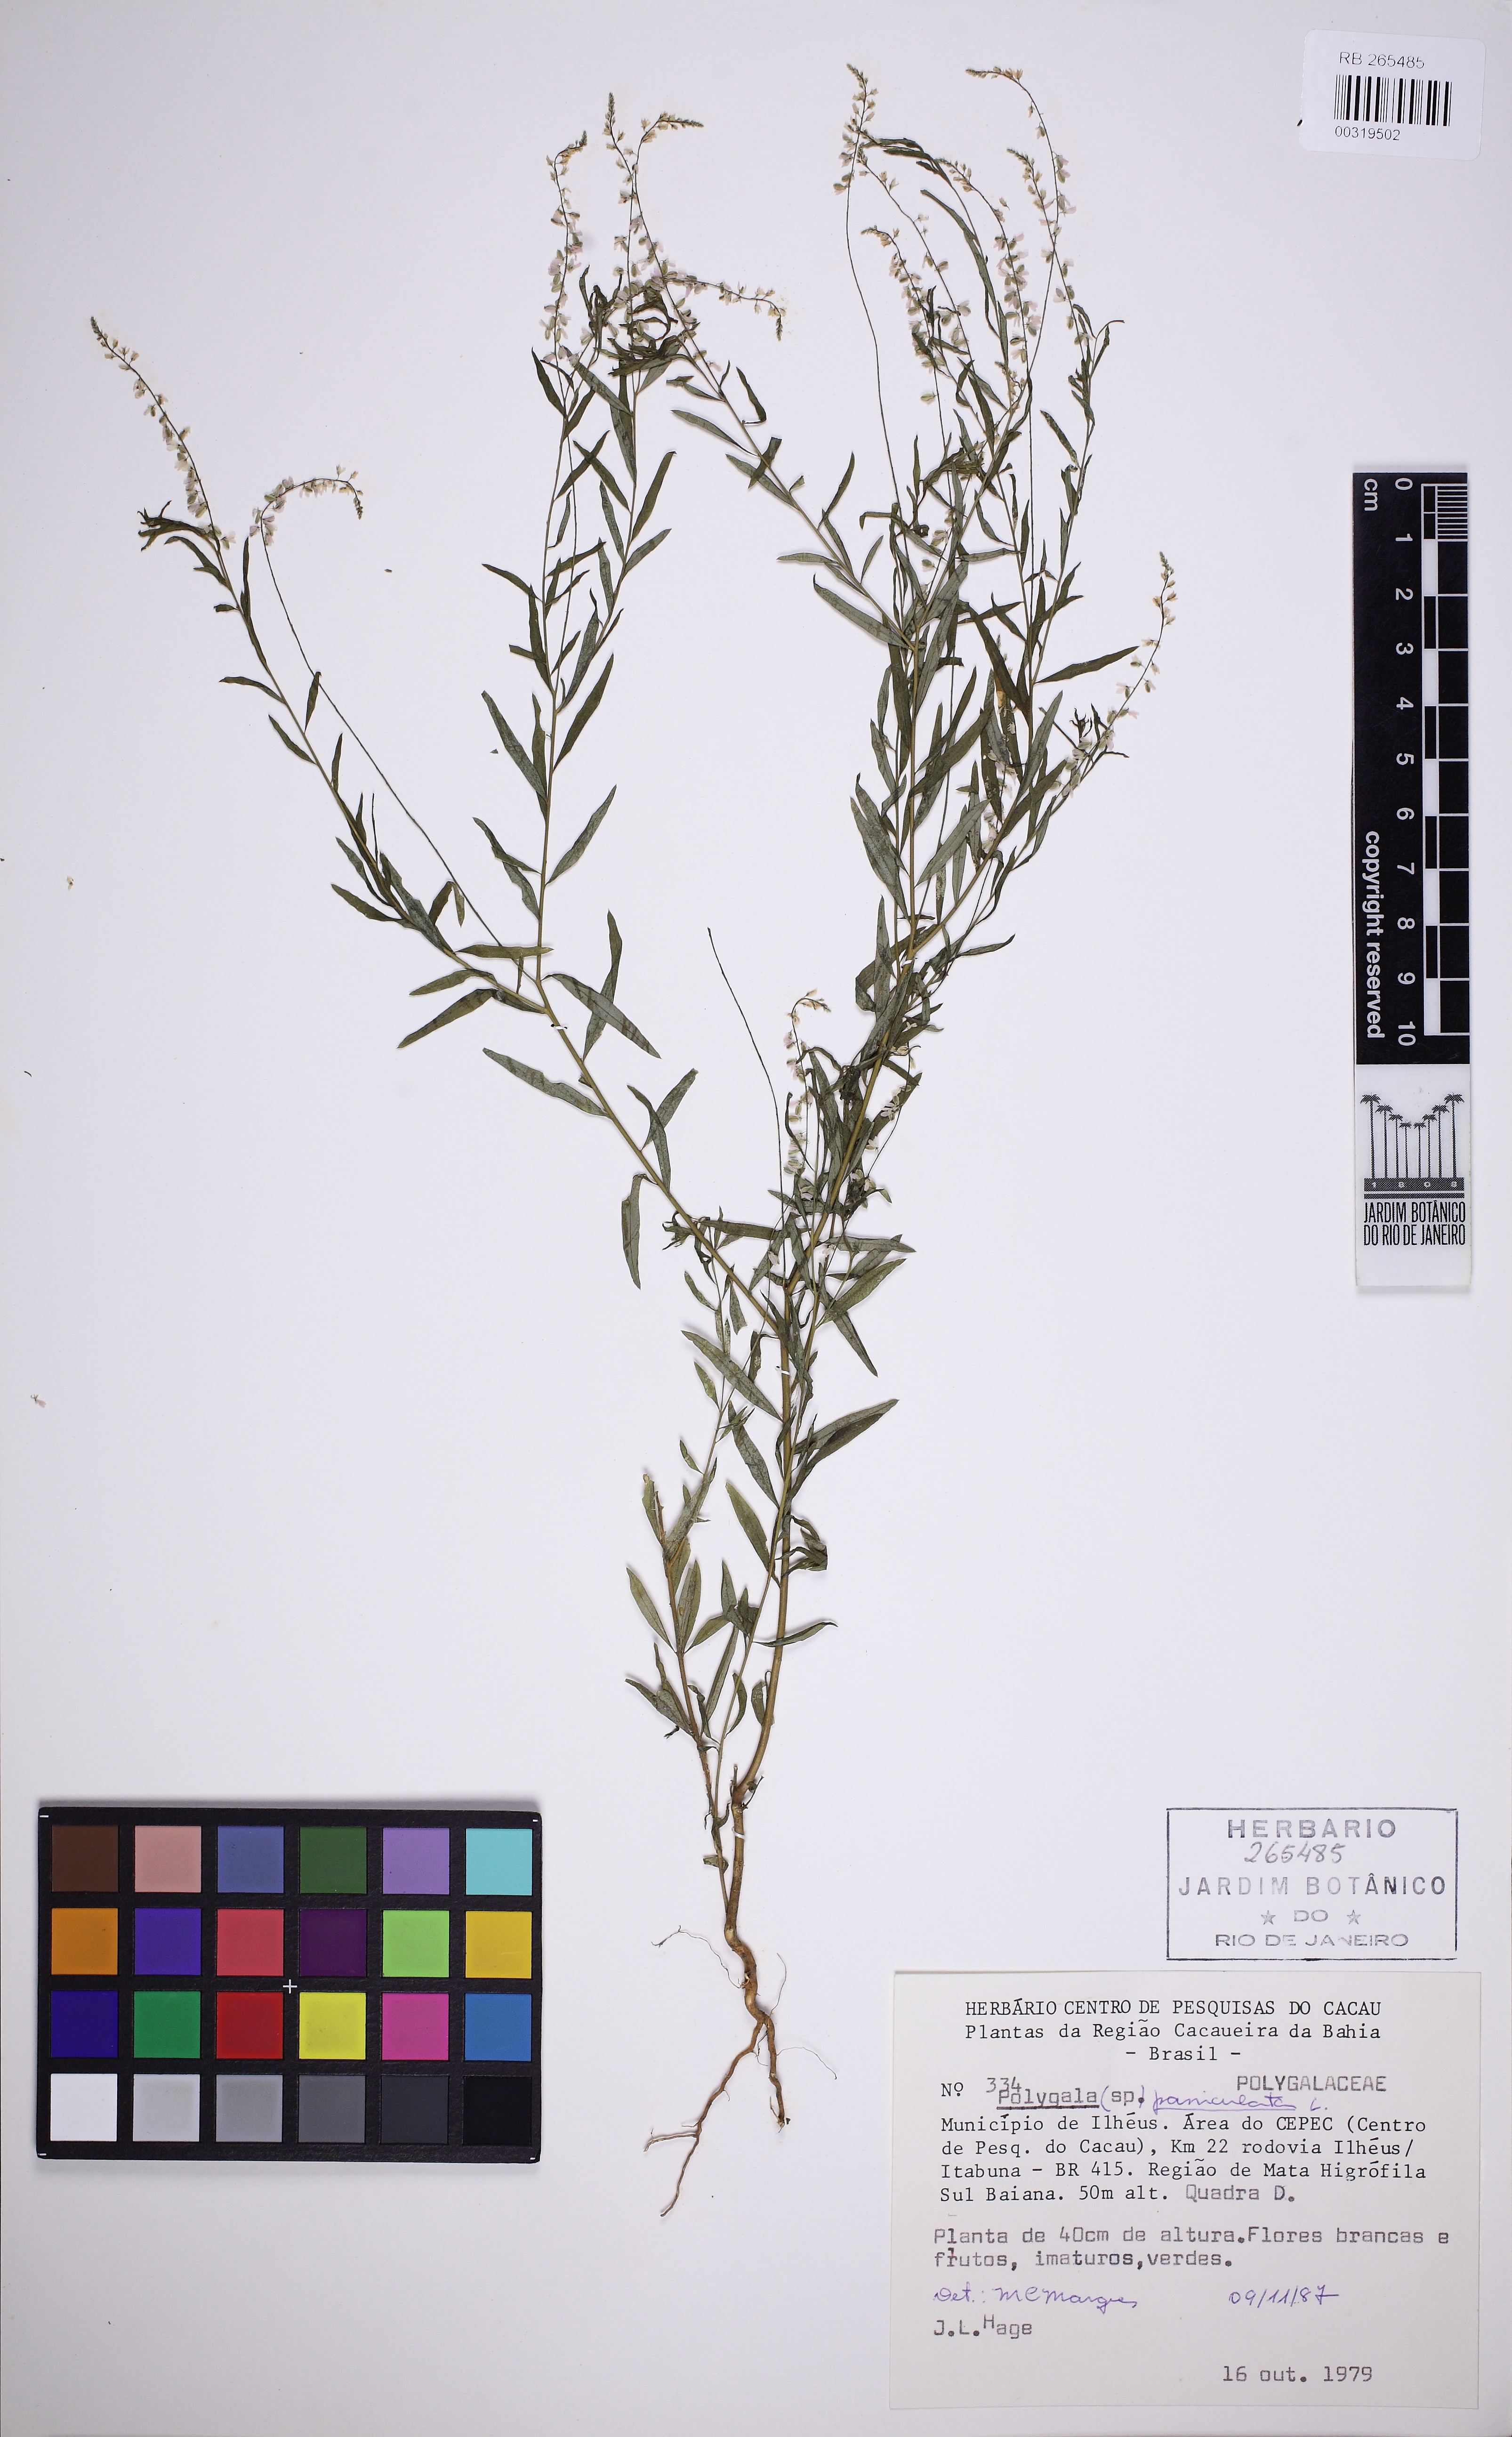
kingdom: Plantae
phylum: Tracheophyta
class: Magnoliopsida
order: Fabales
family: Polygalaceae
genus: Polygala
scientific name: Polygala paniculata
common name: Orosne
